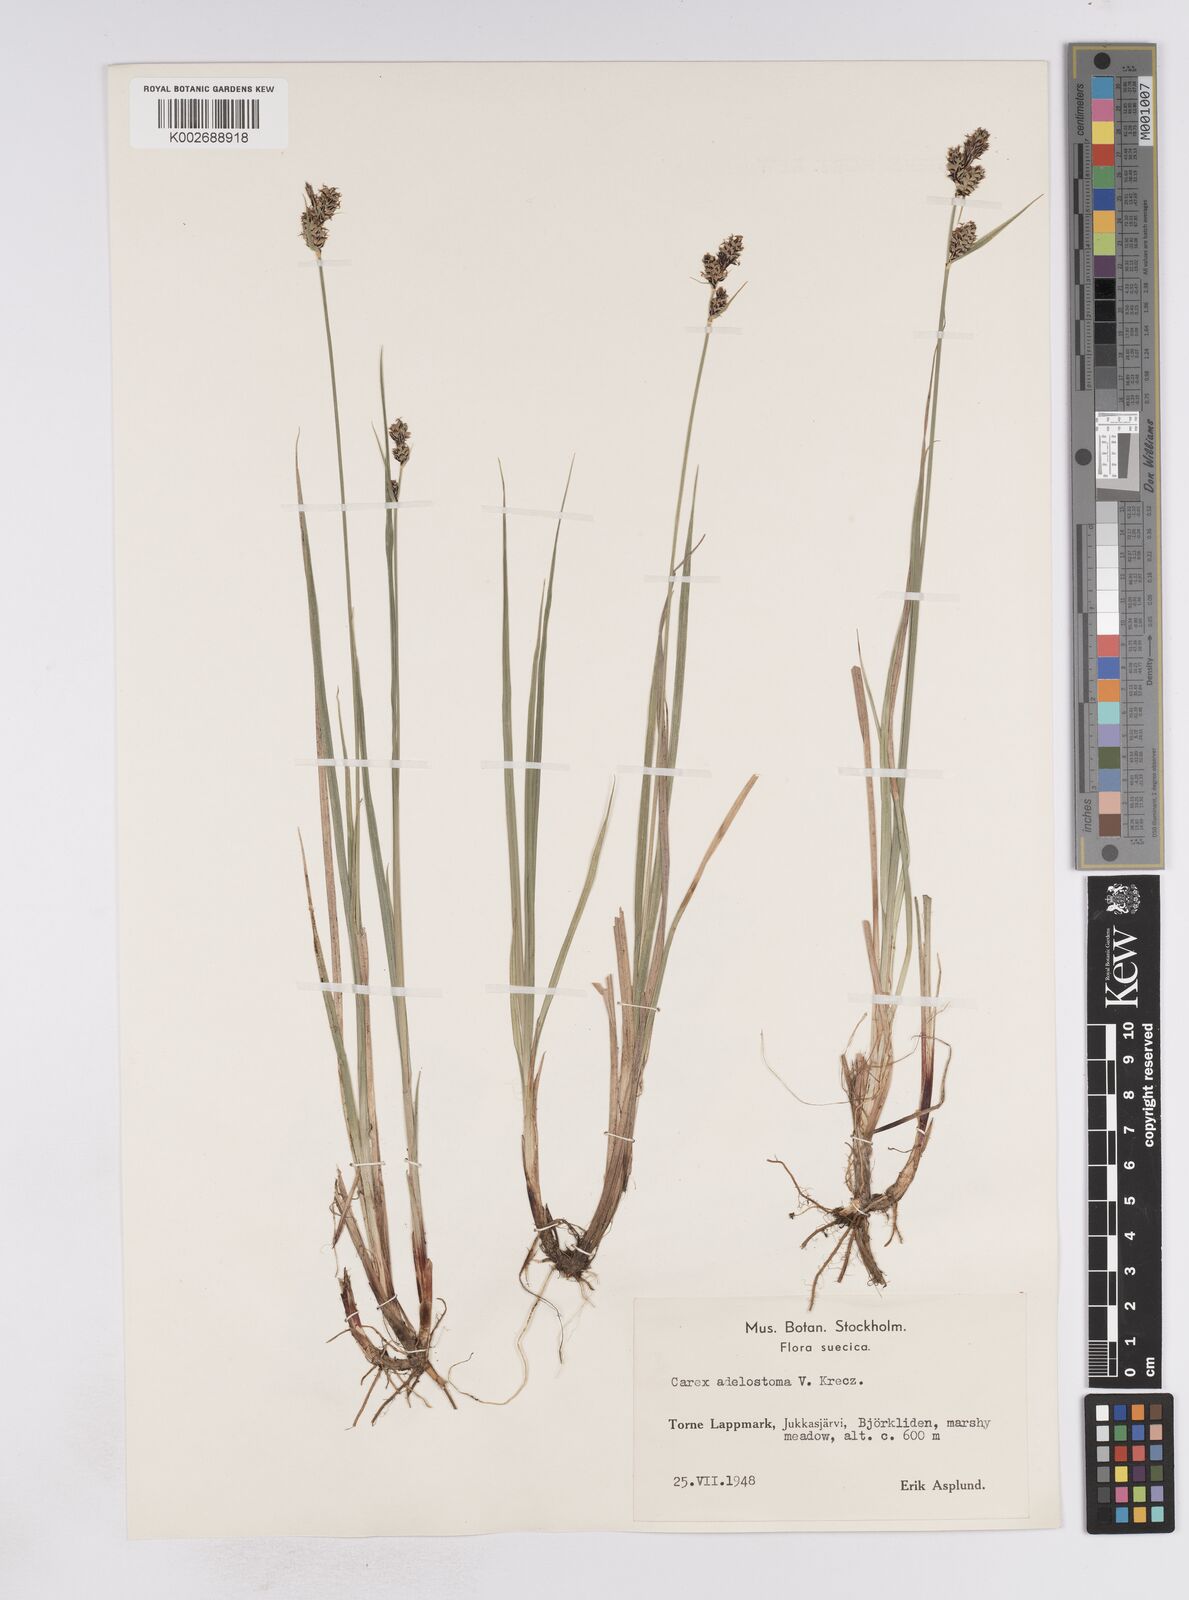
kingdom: Plantae
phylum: Tracheophyta
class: Liliopsida
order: Poales
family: Cyperaceae
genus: Carex
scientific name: Carex adelostoma
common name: Circumpolar sedge
